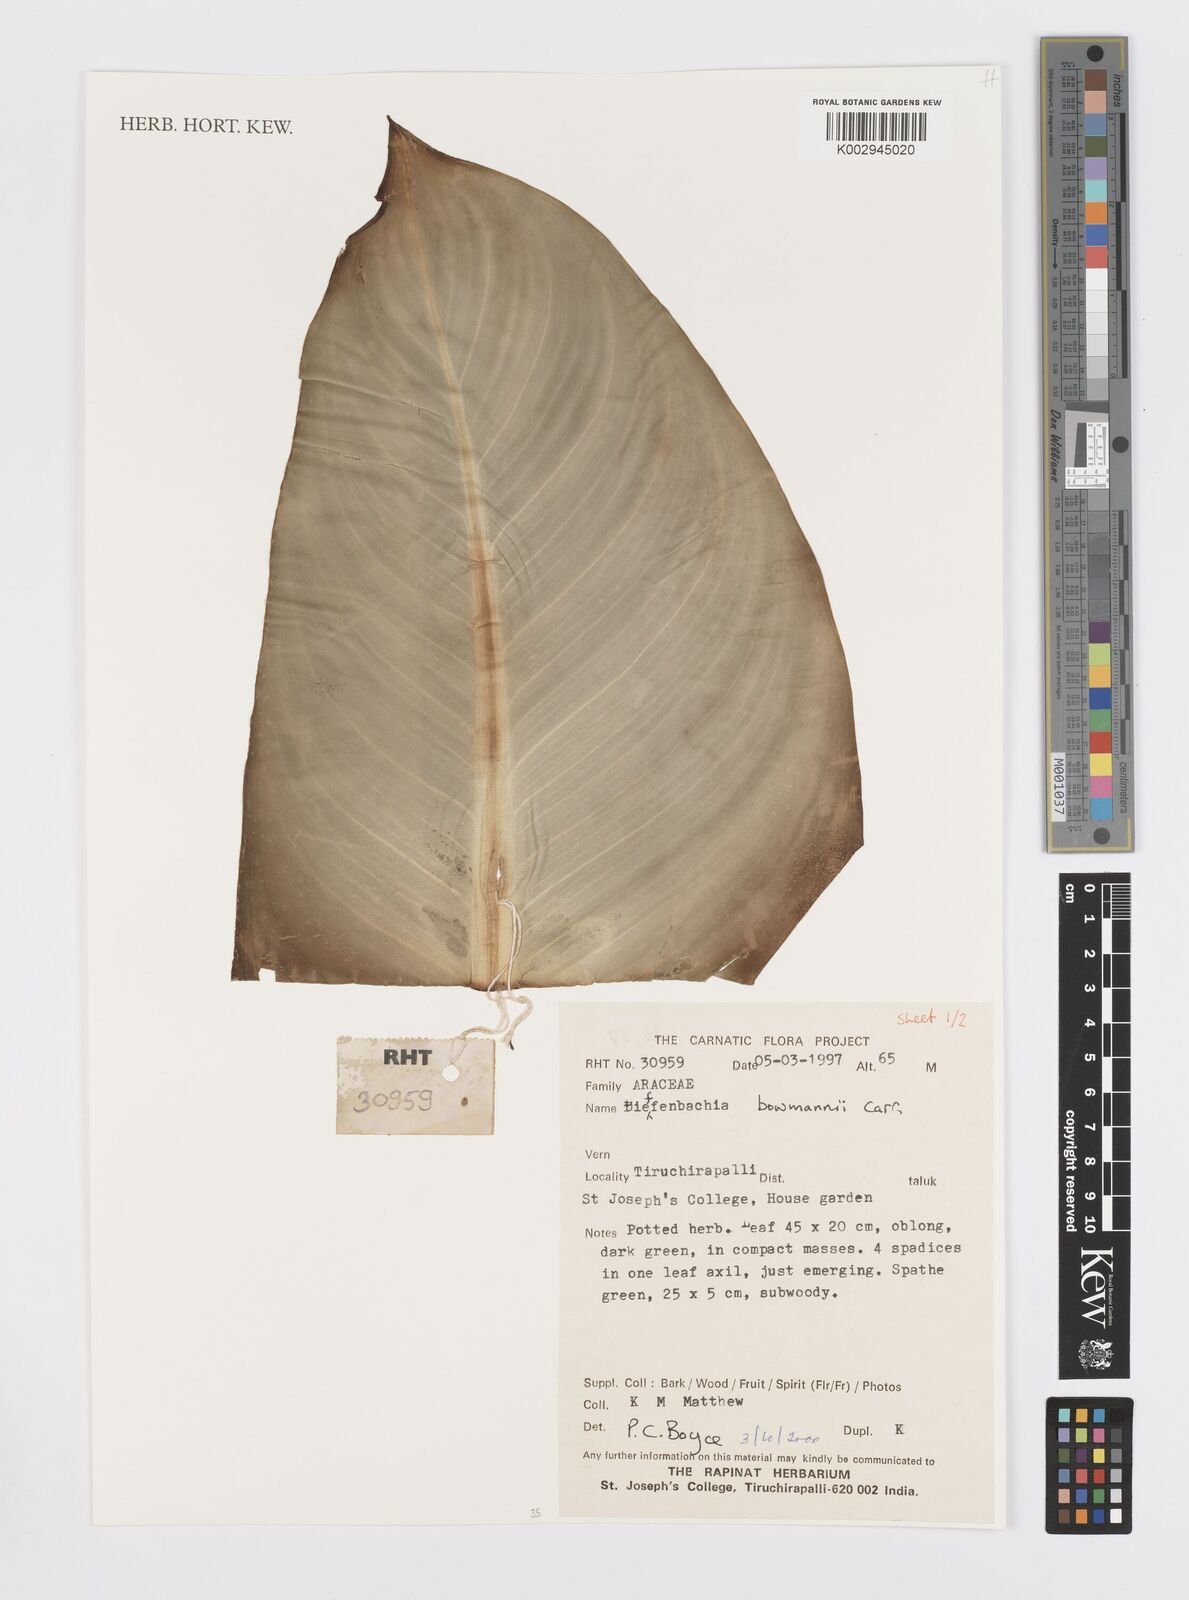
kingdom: Plantae
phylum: Tracheophyta
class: Liliopsida
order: Alismatales
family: Araceae
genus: Dieffenbachia
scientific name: Dieffenbachia bowmanni
